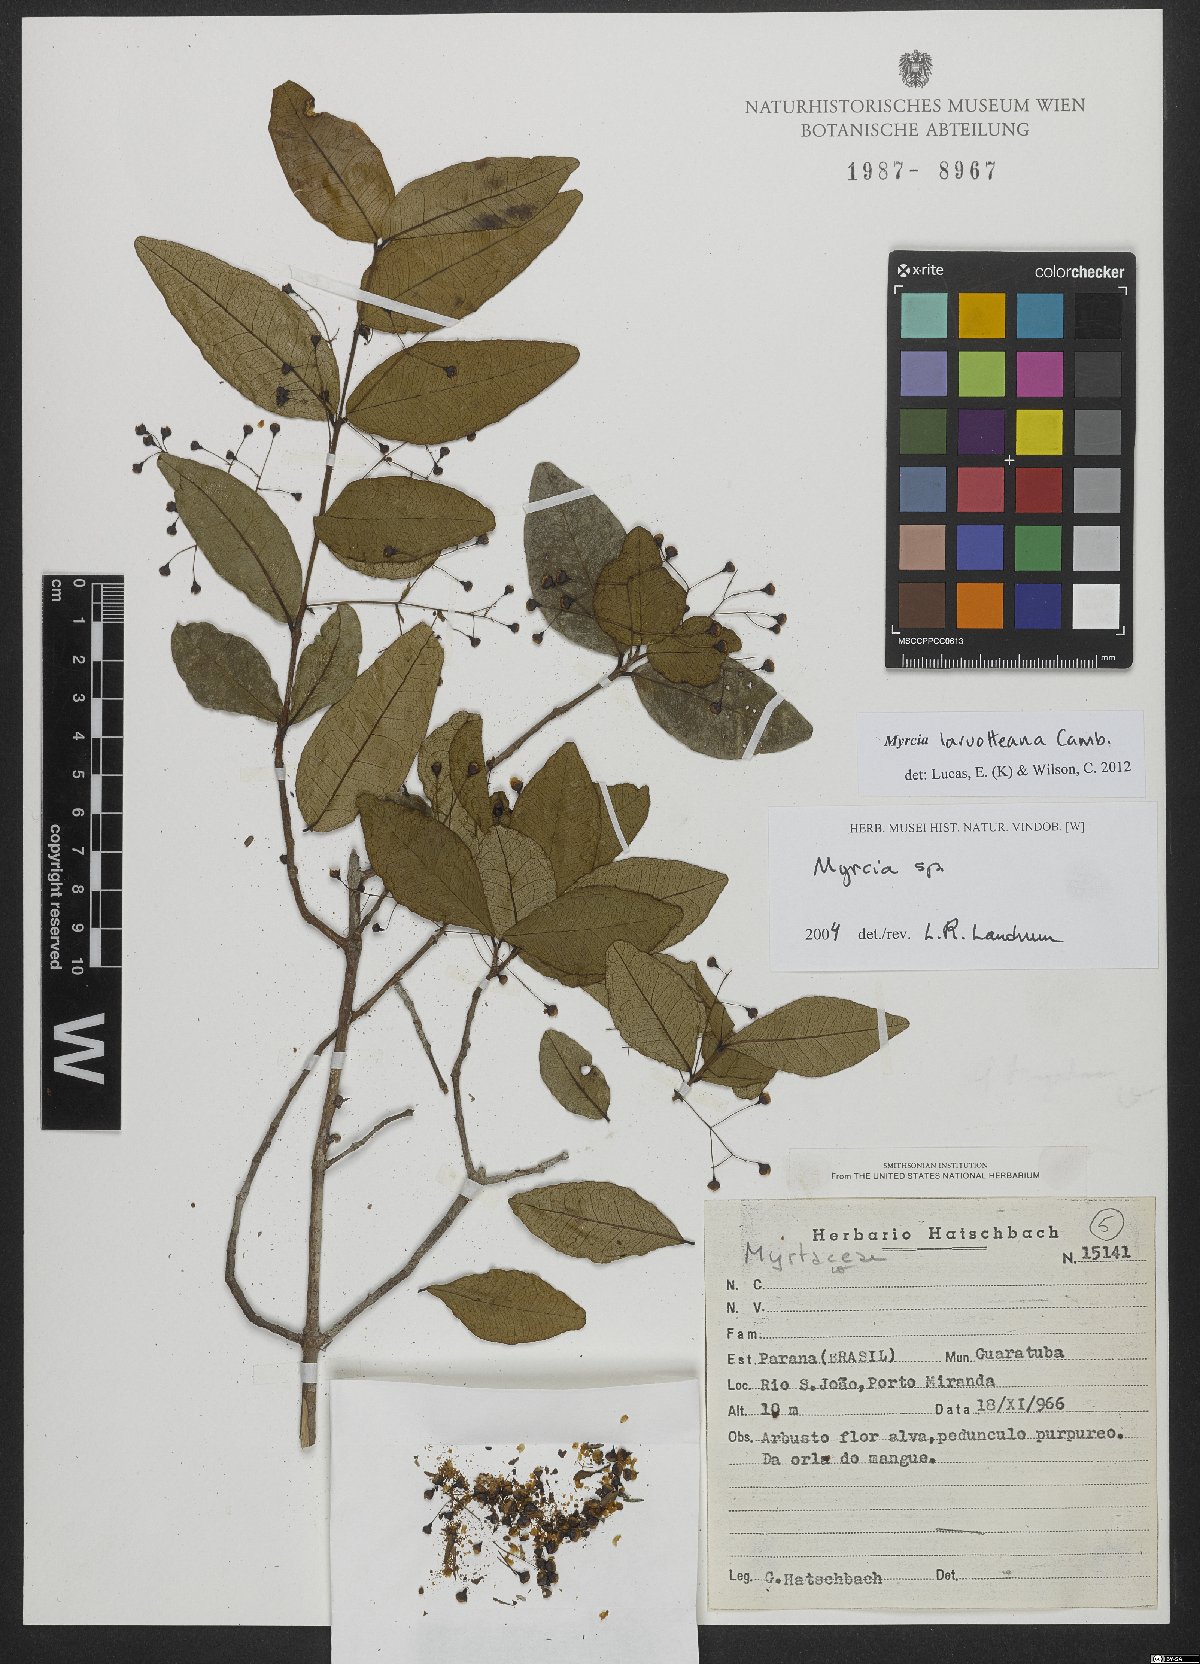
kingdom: Plantae
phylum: Tracheophyta
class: Magnoliopsida
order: Myrtales
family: Myrtaceae
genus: Myrcia
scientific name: Myrcia laruotteana
